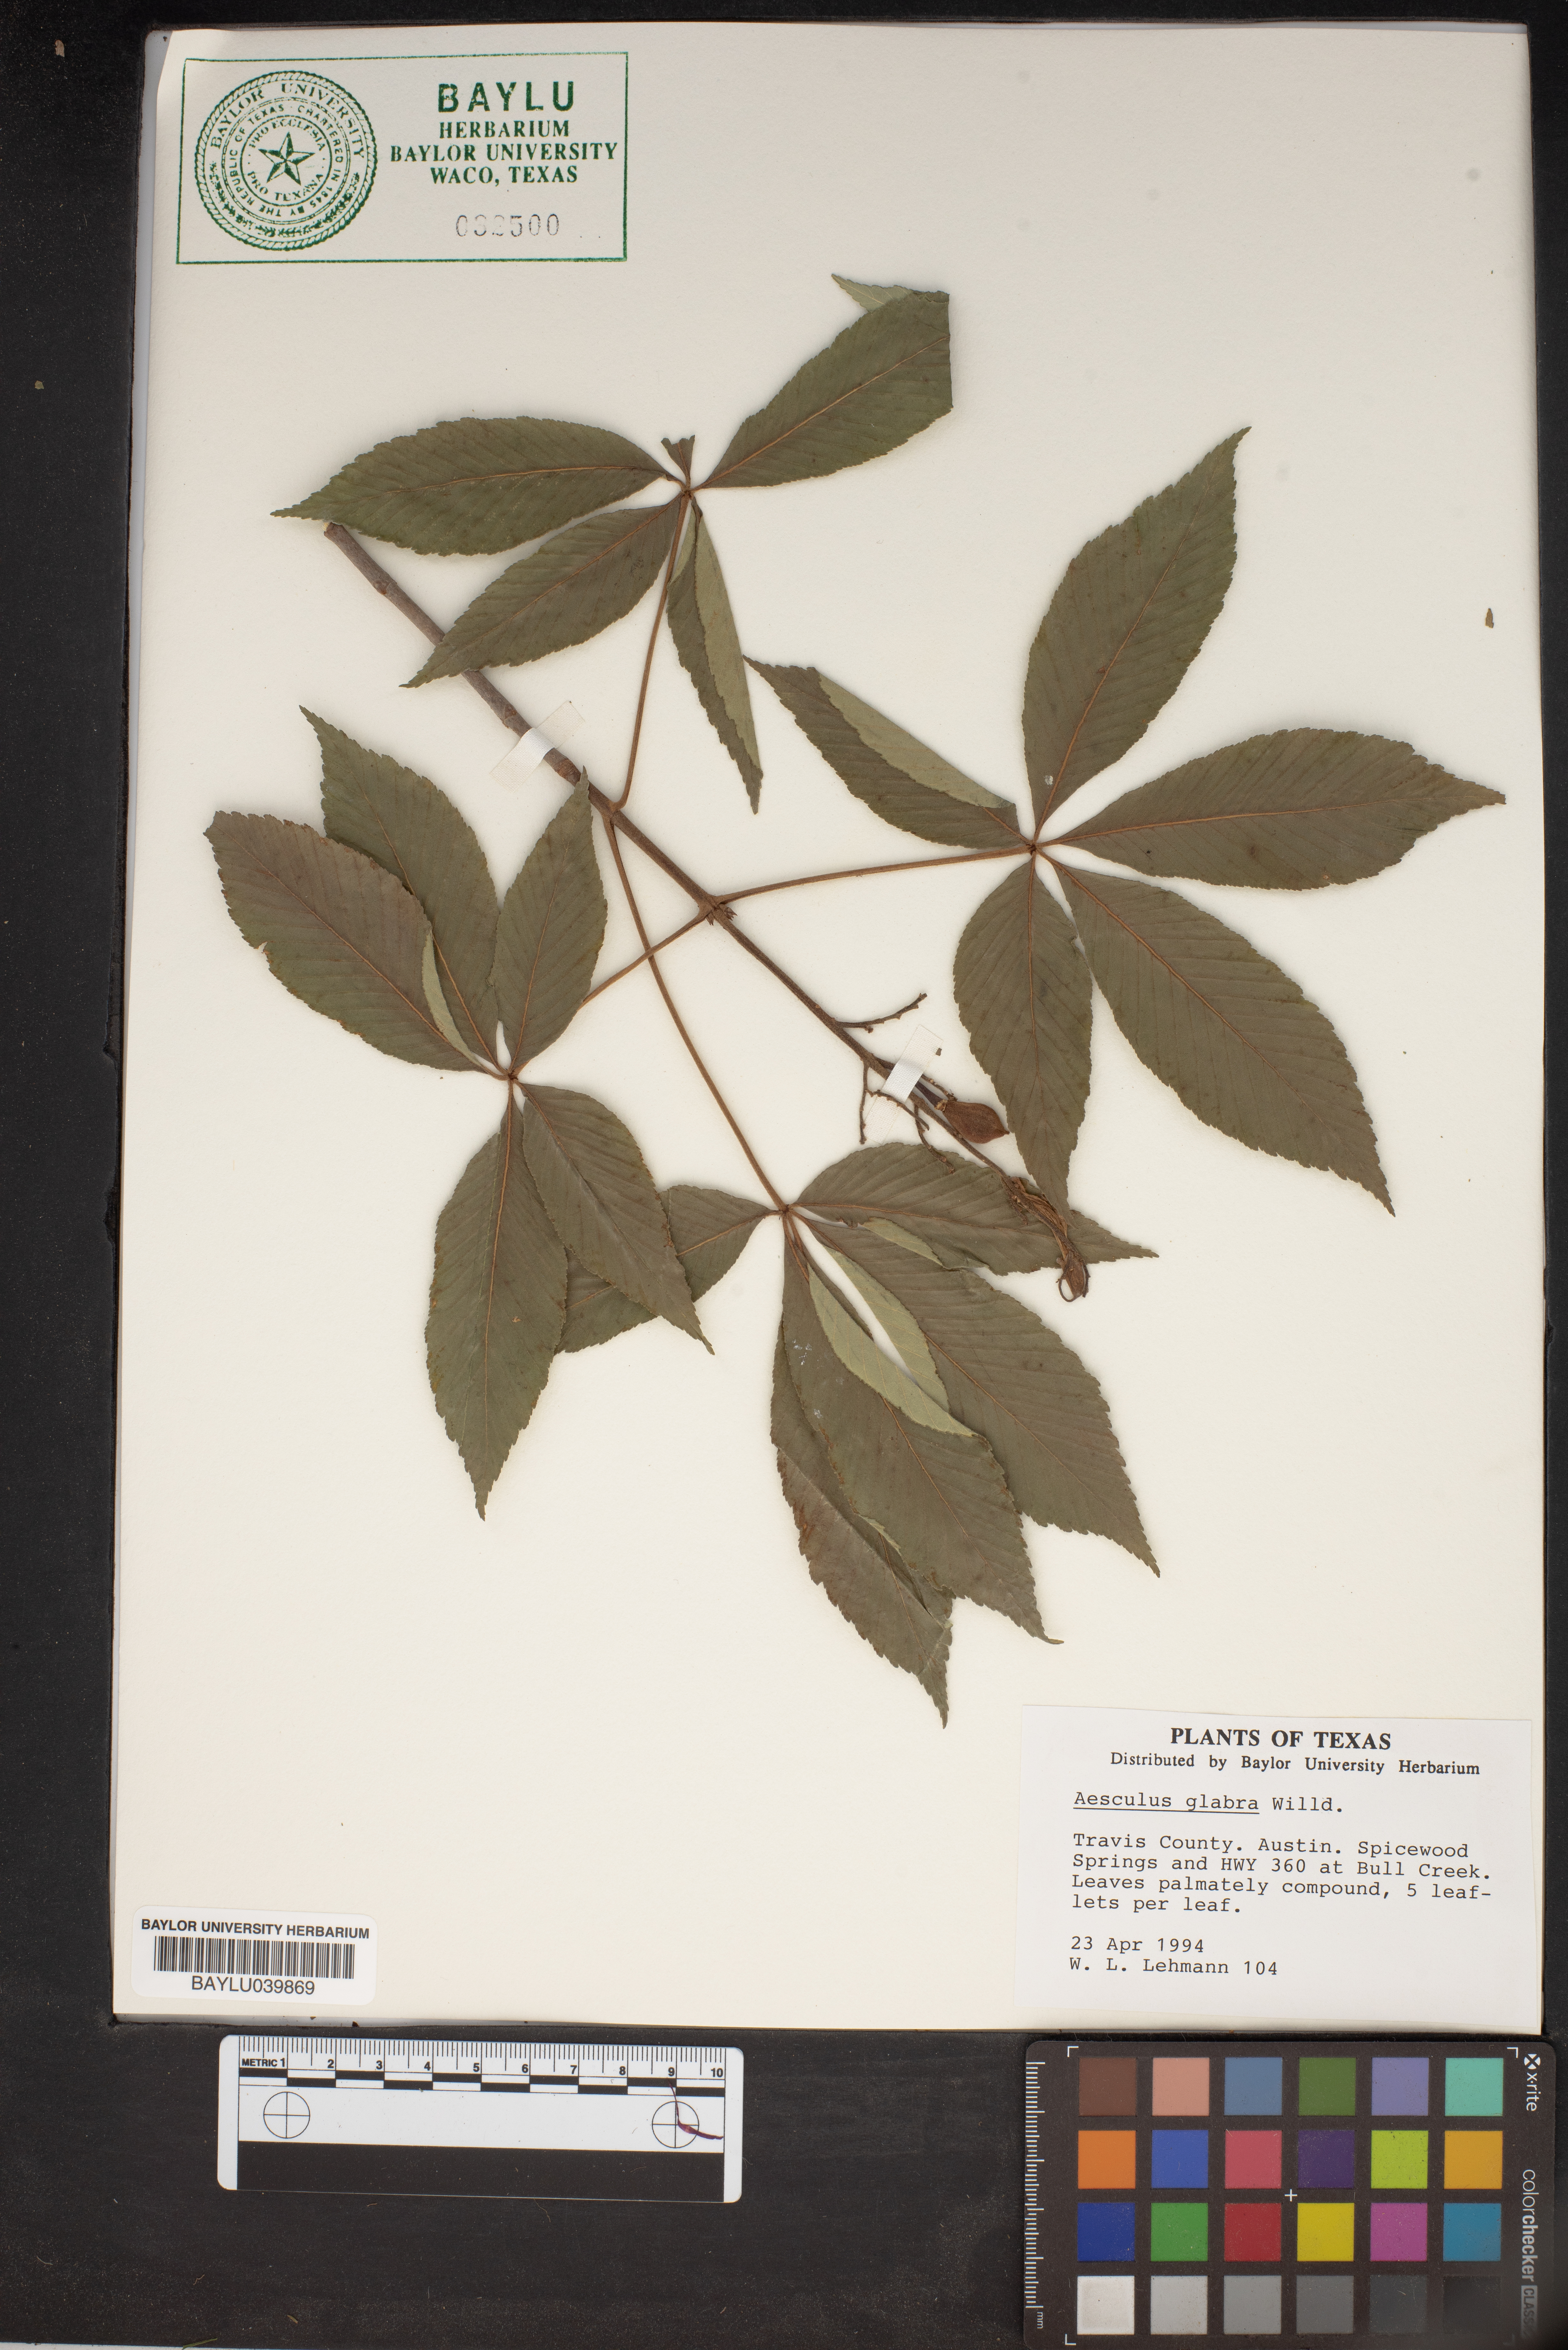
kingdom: Plantae
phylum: Tracheophyta
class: Magnoliopsida
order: Sapindales
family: Sapindaceae
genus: Aesculus
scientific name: Aesculus glabra
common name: Ohio buckeye
